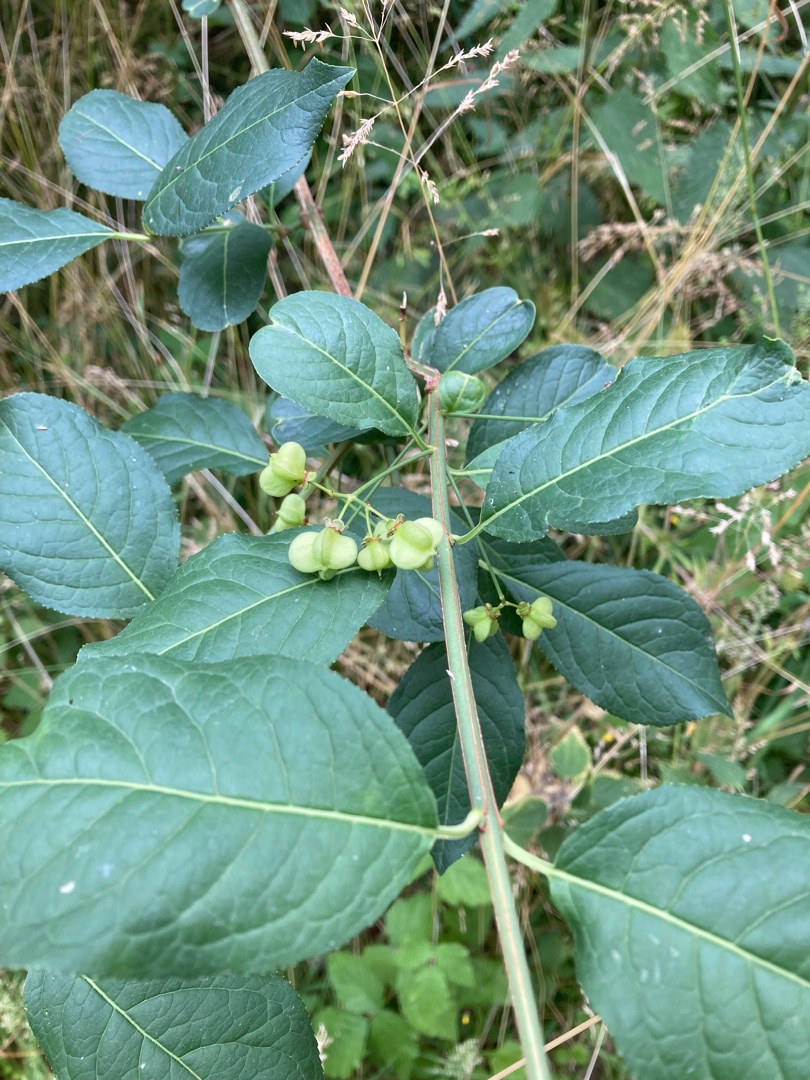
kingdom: Plantae
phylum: Tracheophyta
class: Magnoliopsida
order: Celastrales
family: Celastraceae
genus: Euonymus
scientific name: Euonymus europaeus
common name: Benved
